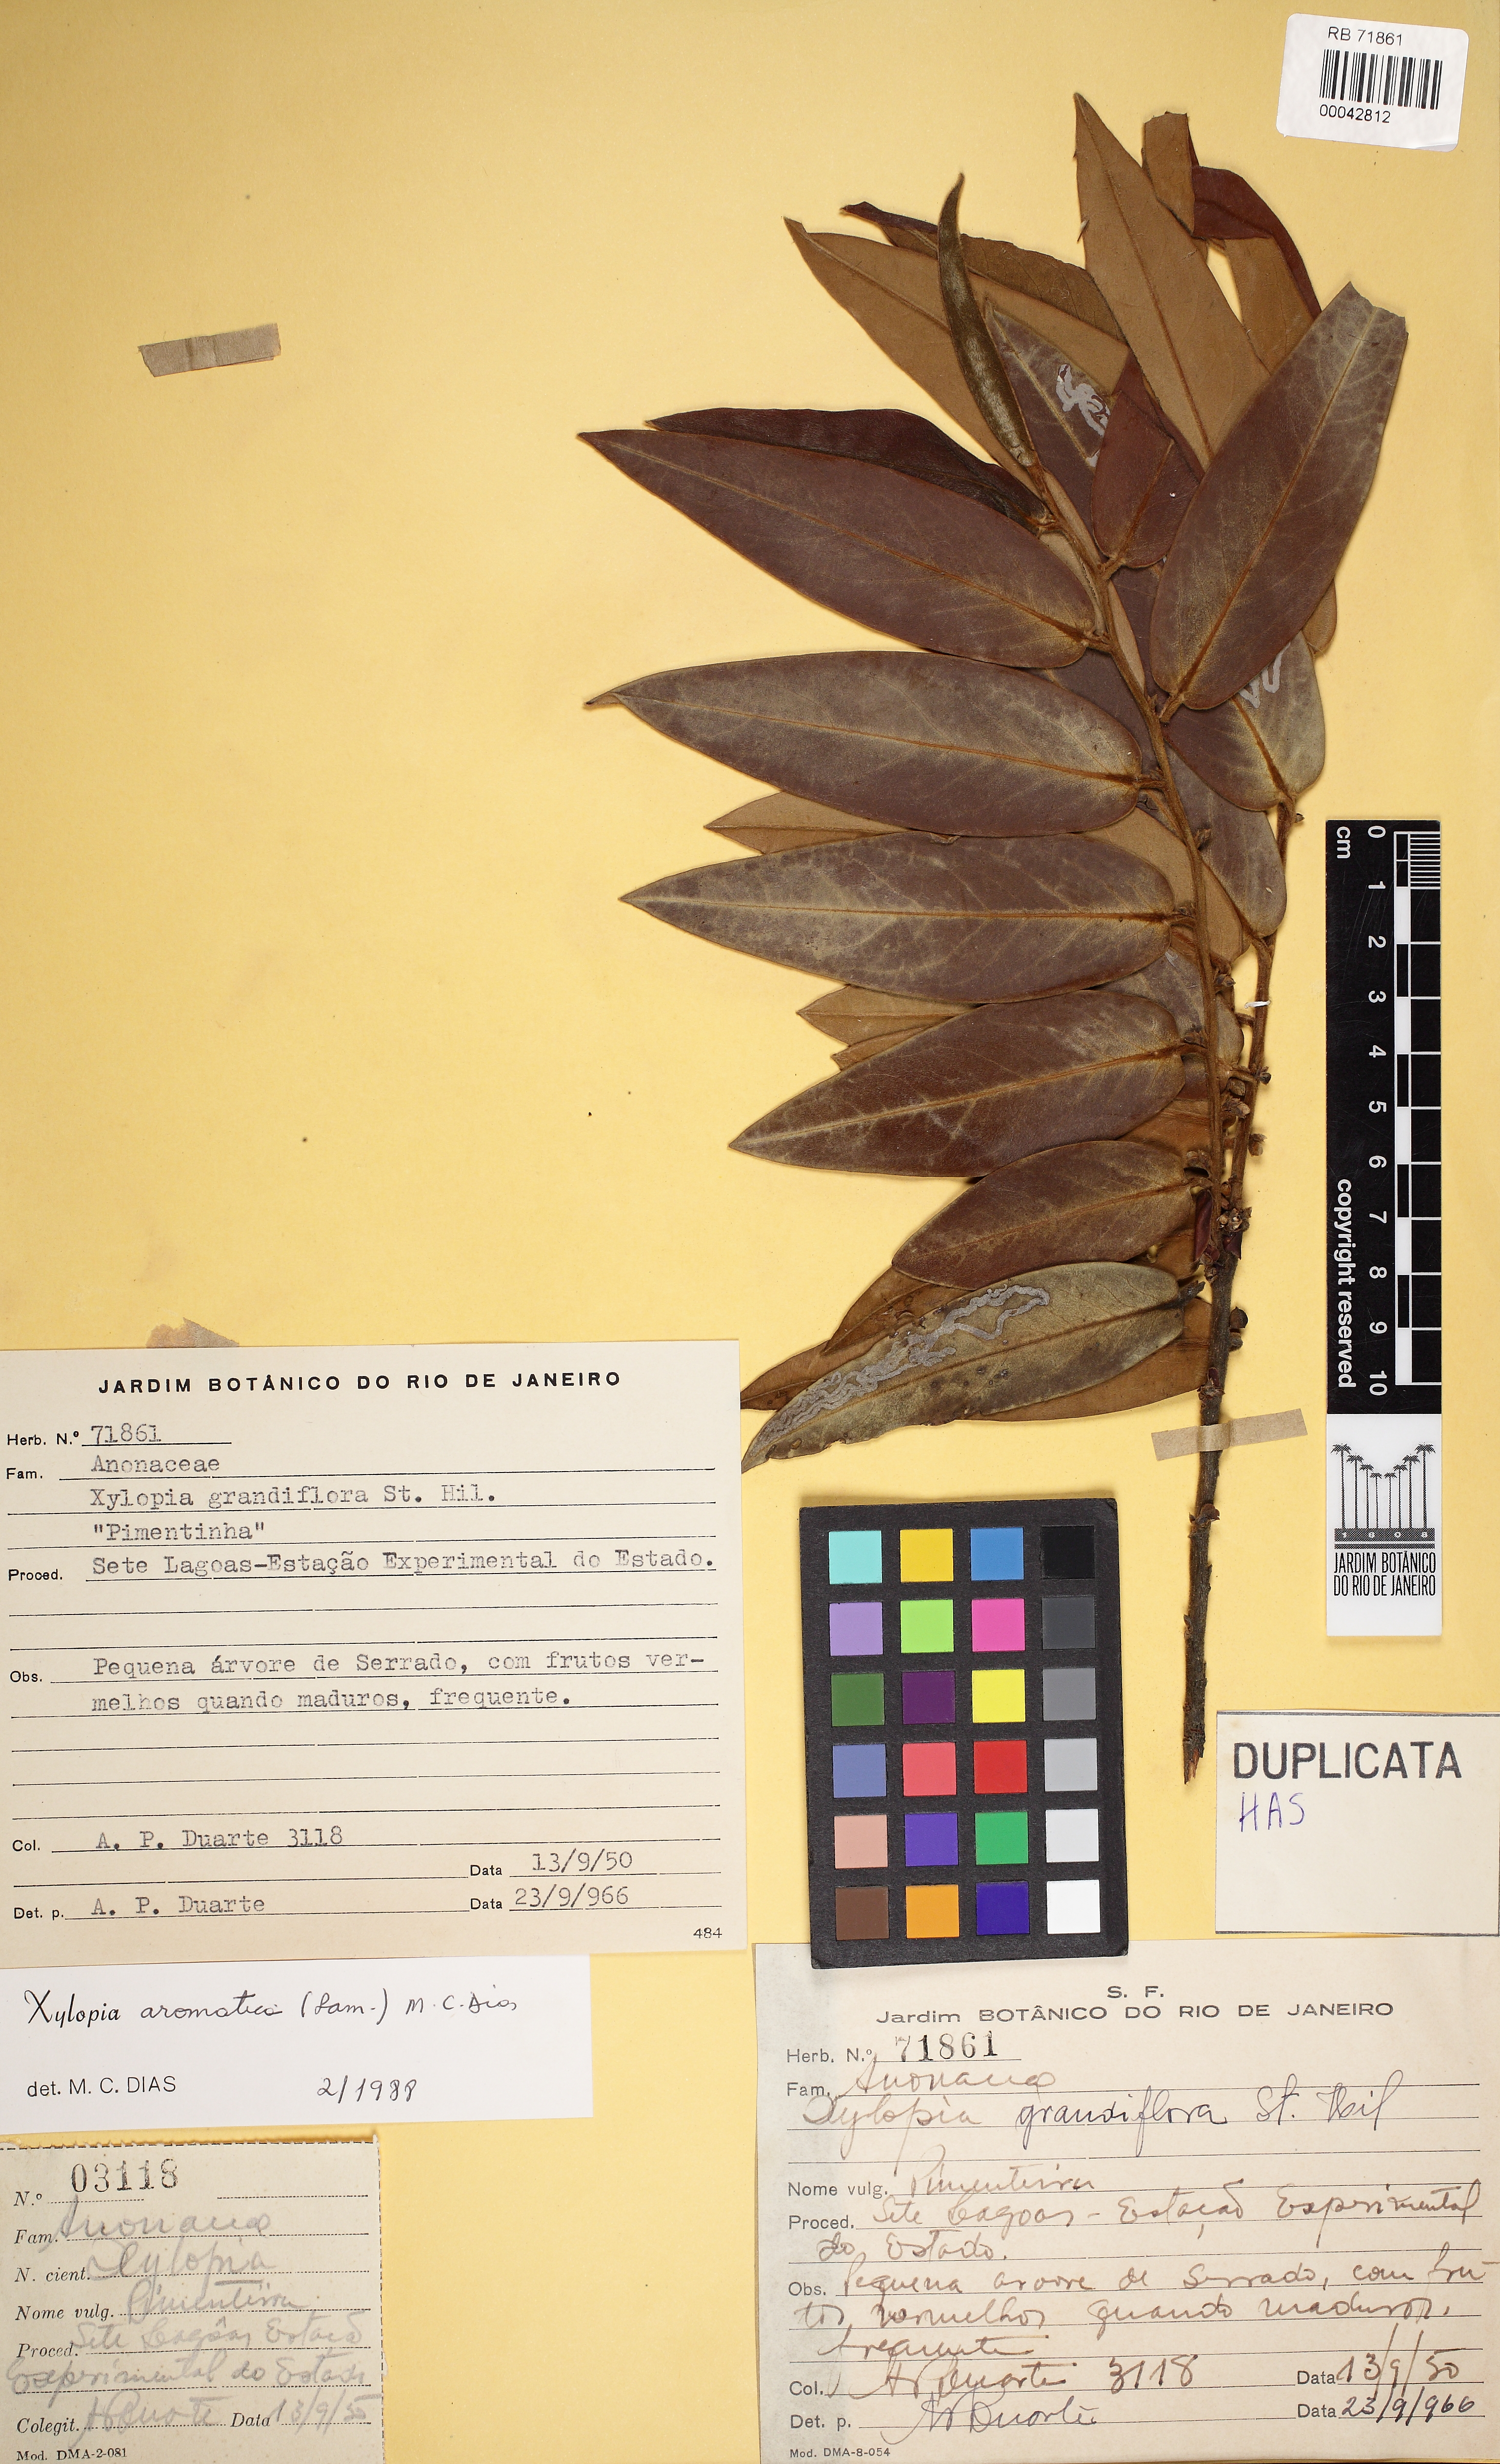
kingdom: Plantae
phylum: Tracheophyta
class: Magnoliopsida
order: Magnoliales
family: Annonaceae
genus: Xylopia
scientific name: Xylopia aromatica
